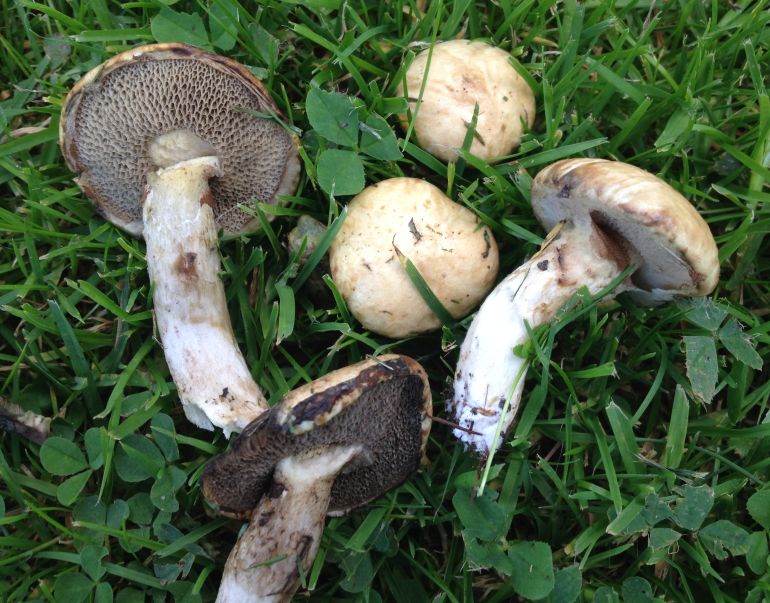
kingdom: Fungi
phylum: Basidiomycota
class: Agaricomycetes
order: Boletales
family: Suillaceae
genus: Suillus
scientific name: Suillus viscidus
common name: olivengrå slimrørhat
